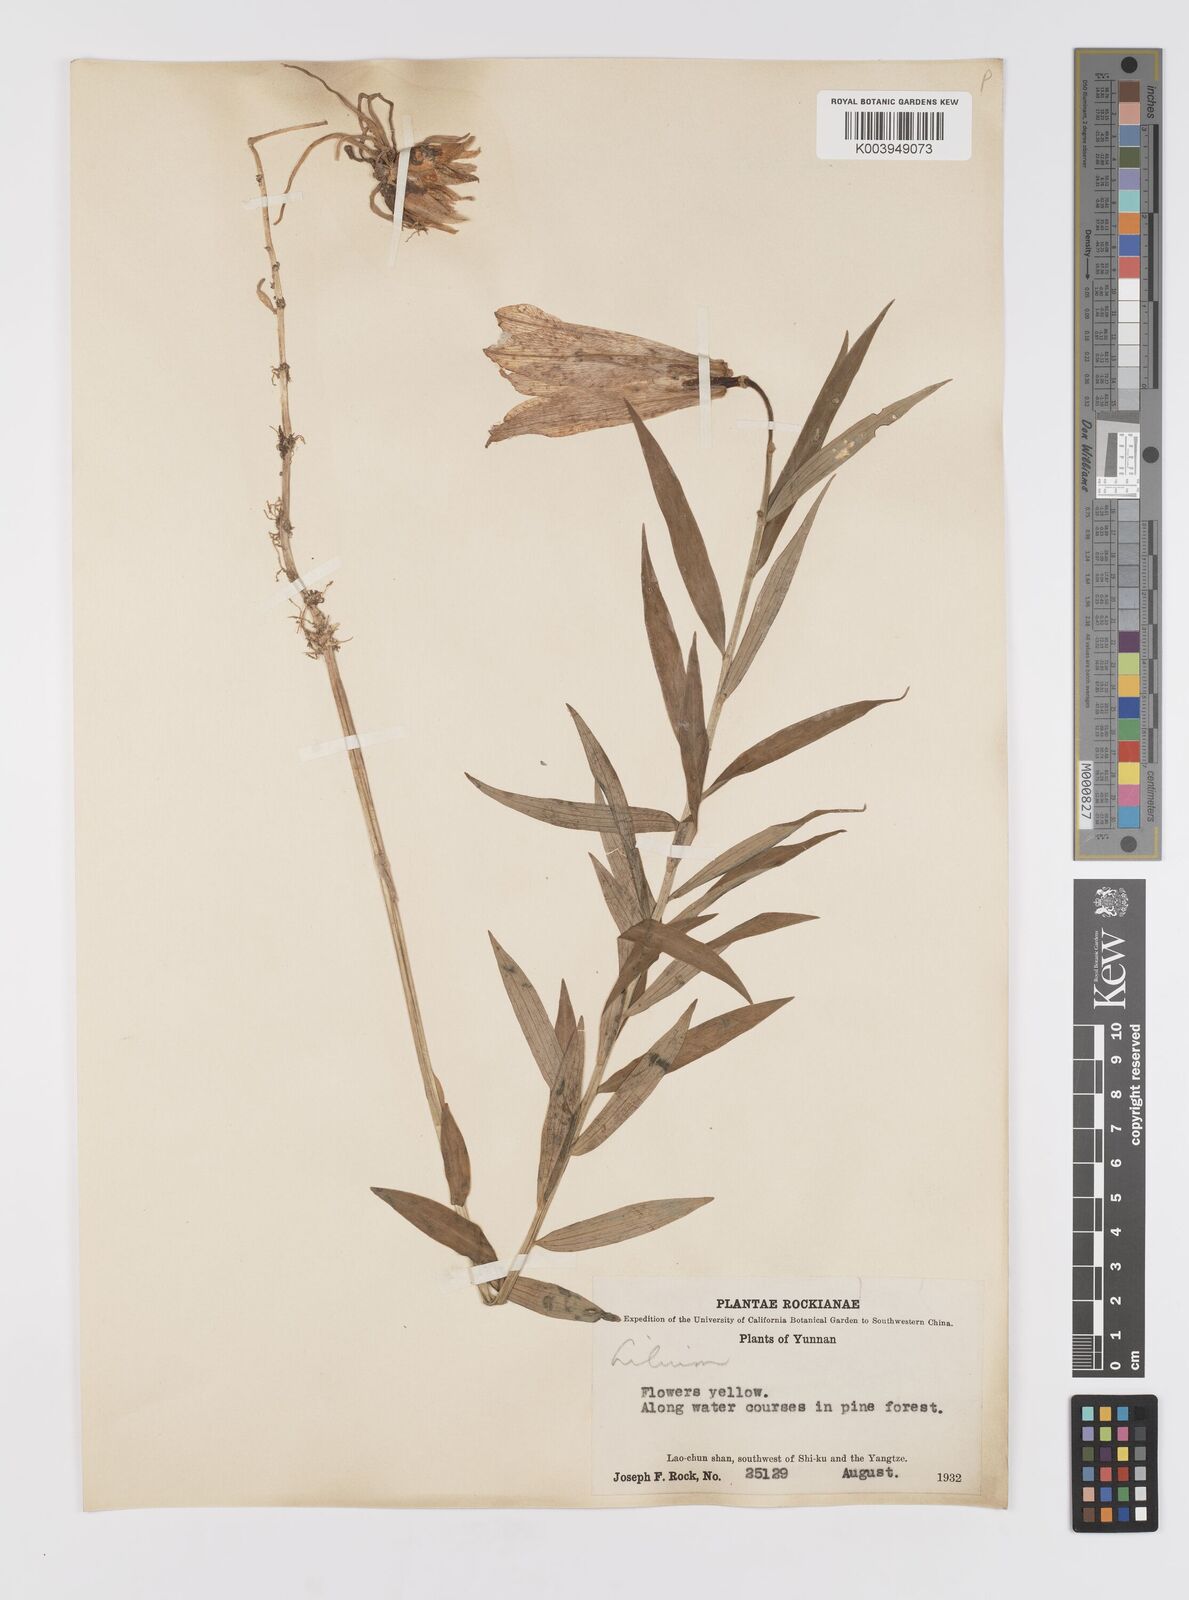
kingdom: Plantae
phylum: Tracheophyta
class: Liliopsida
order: Liliales
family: Liliaceae
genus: Lilium
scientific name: Lilium
